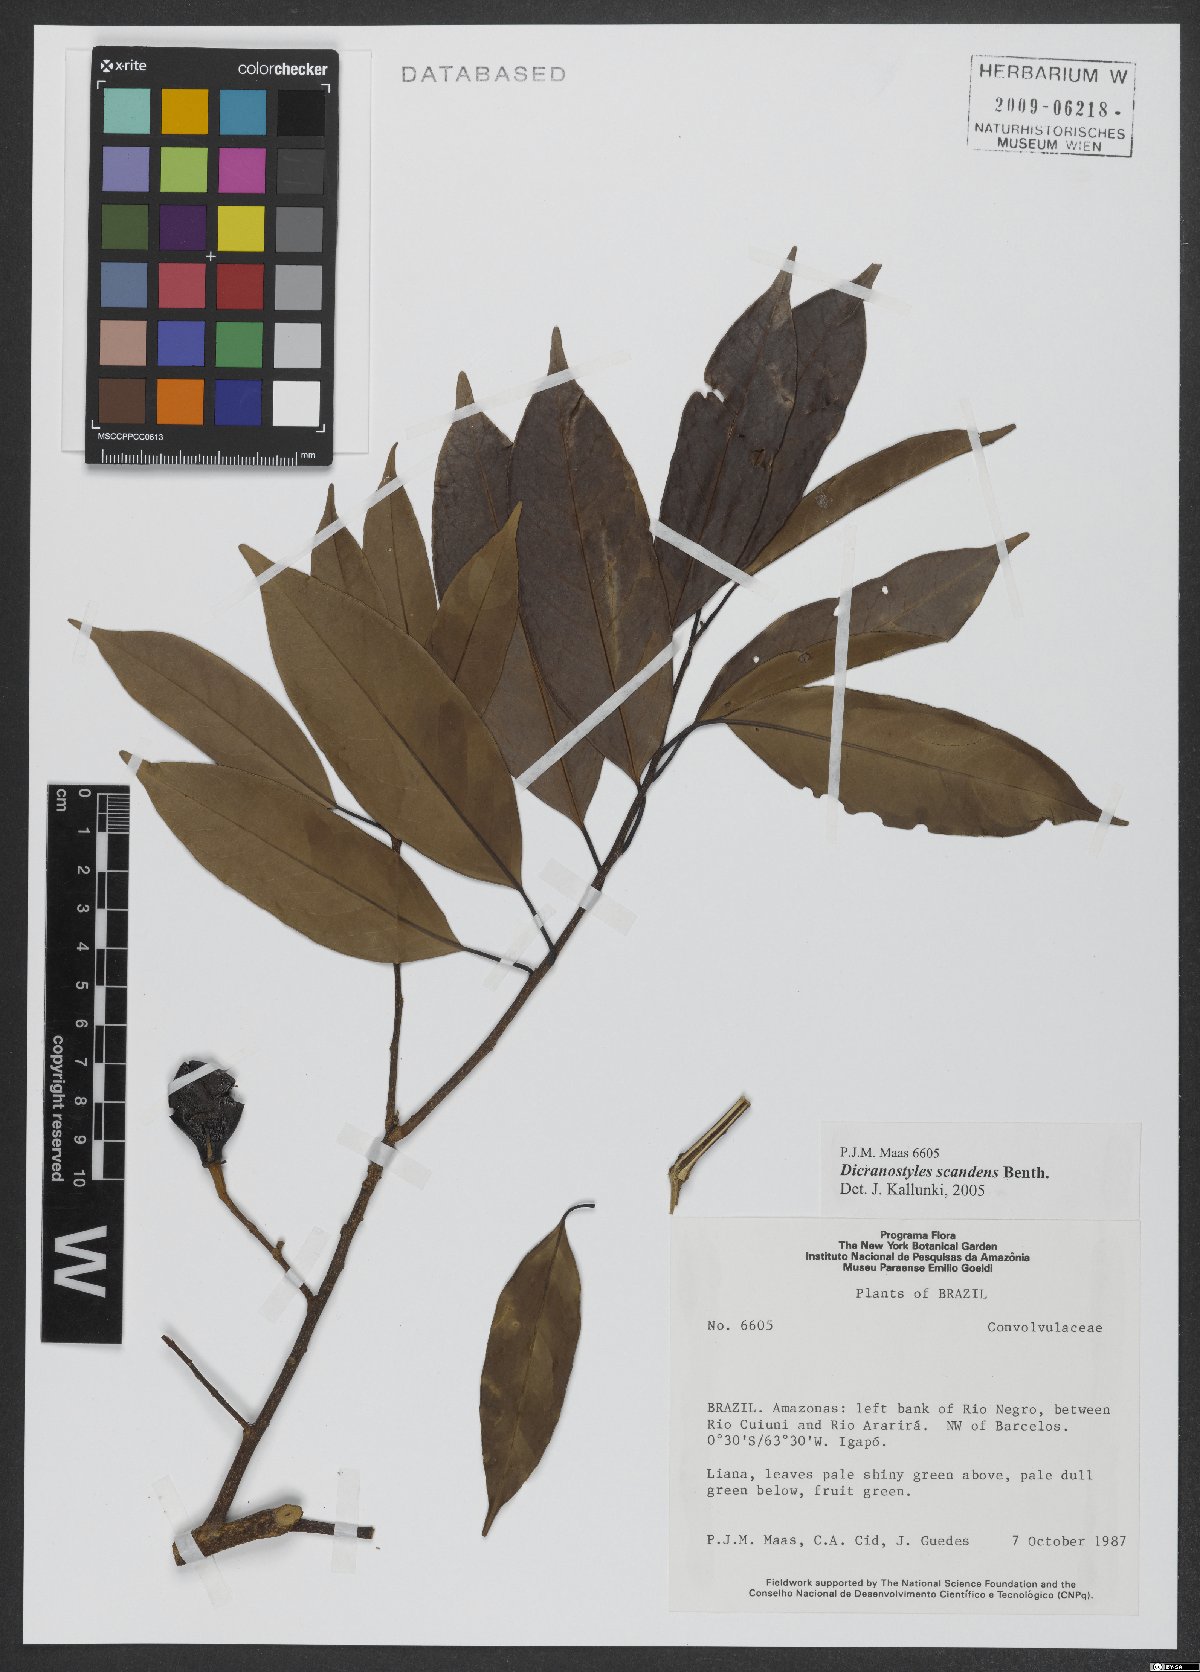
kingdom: Plantae
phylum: Tracheophyta
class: Magnoliopsida
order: Solanales
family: Convolvulaceae
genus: Dicranostyles
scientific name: Dicranostyles scandens
